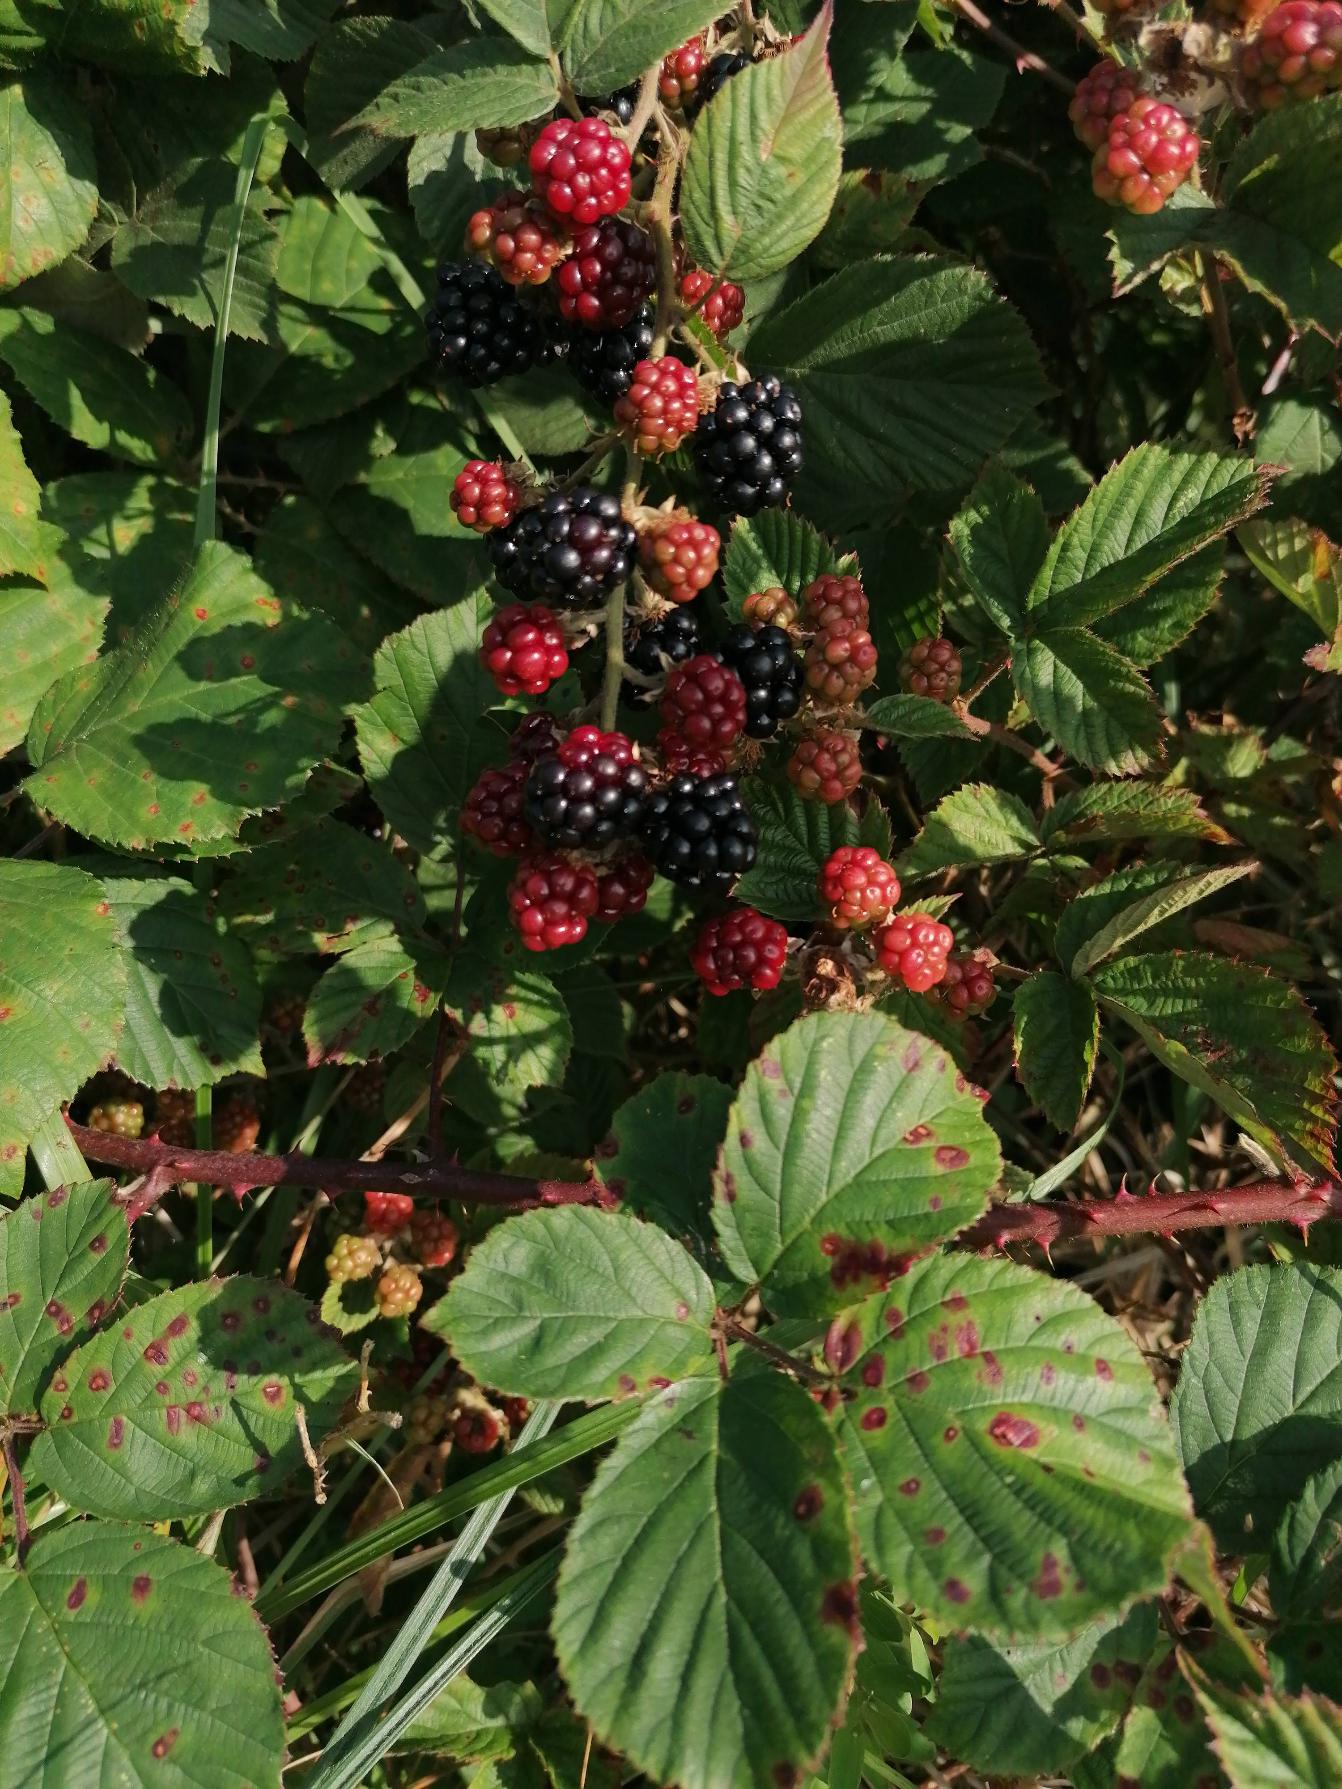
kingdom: Plantae
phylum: Tracheophyta
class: Magnoliopsida
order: Rosales
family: Rosaceae
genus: Rubus
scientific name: Rubus
